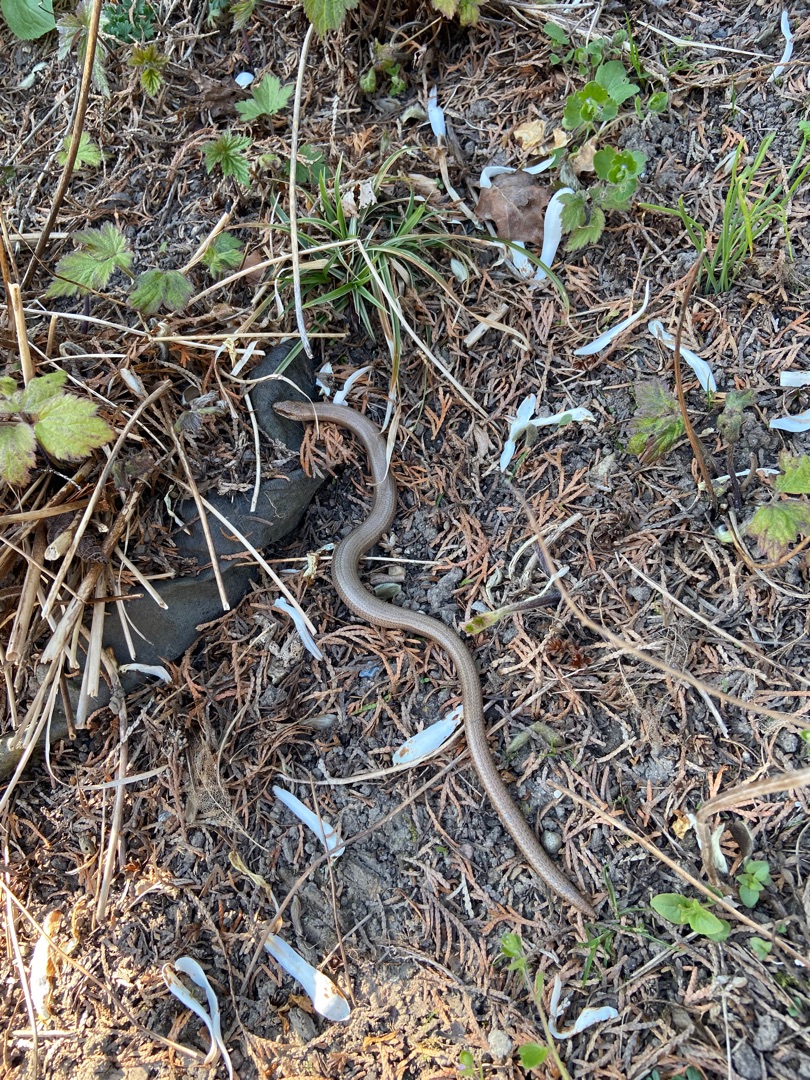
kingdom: Animalia
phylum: Chordata
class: Squamata
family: Anguidae
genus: Anguis
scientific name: Anguis fragilis
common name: Stålorm
